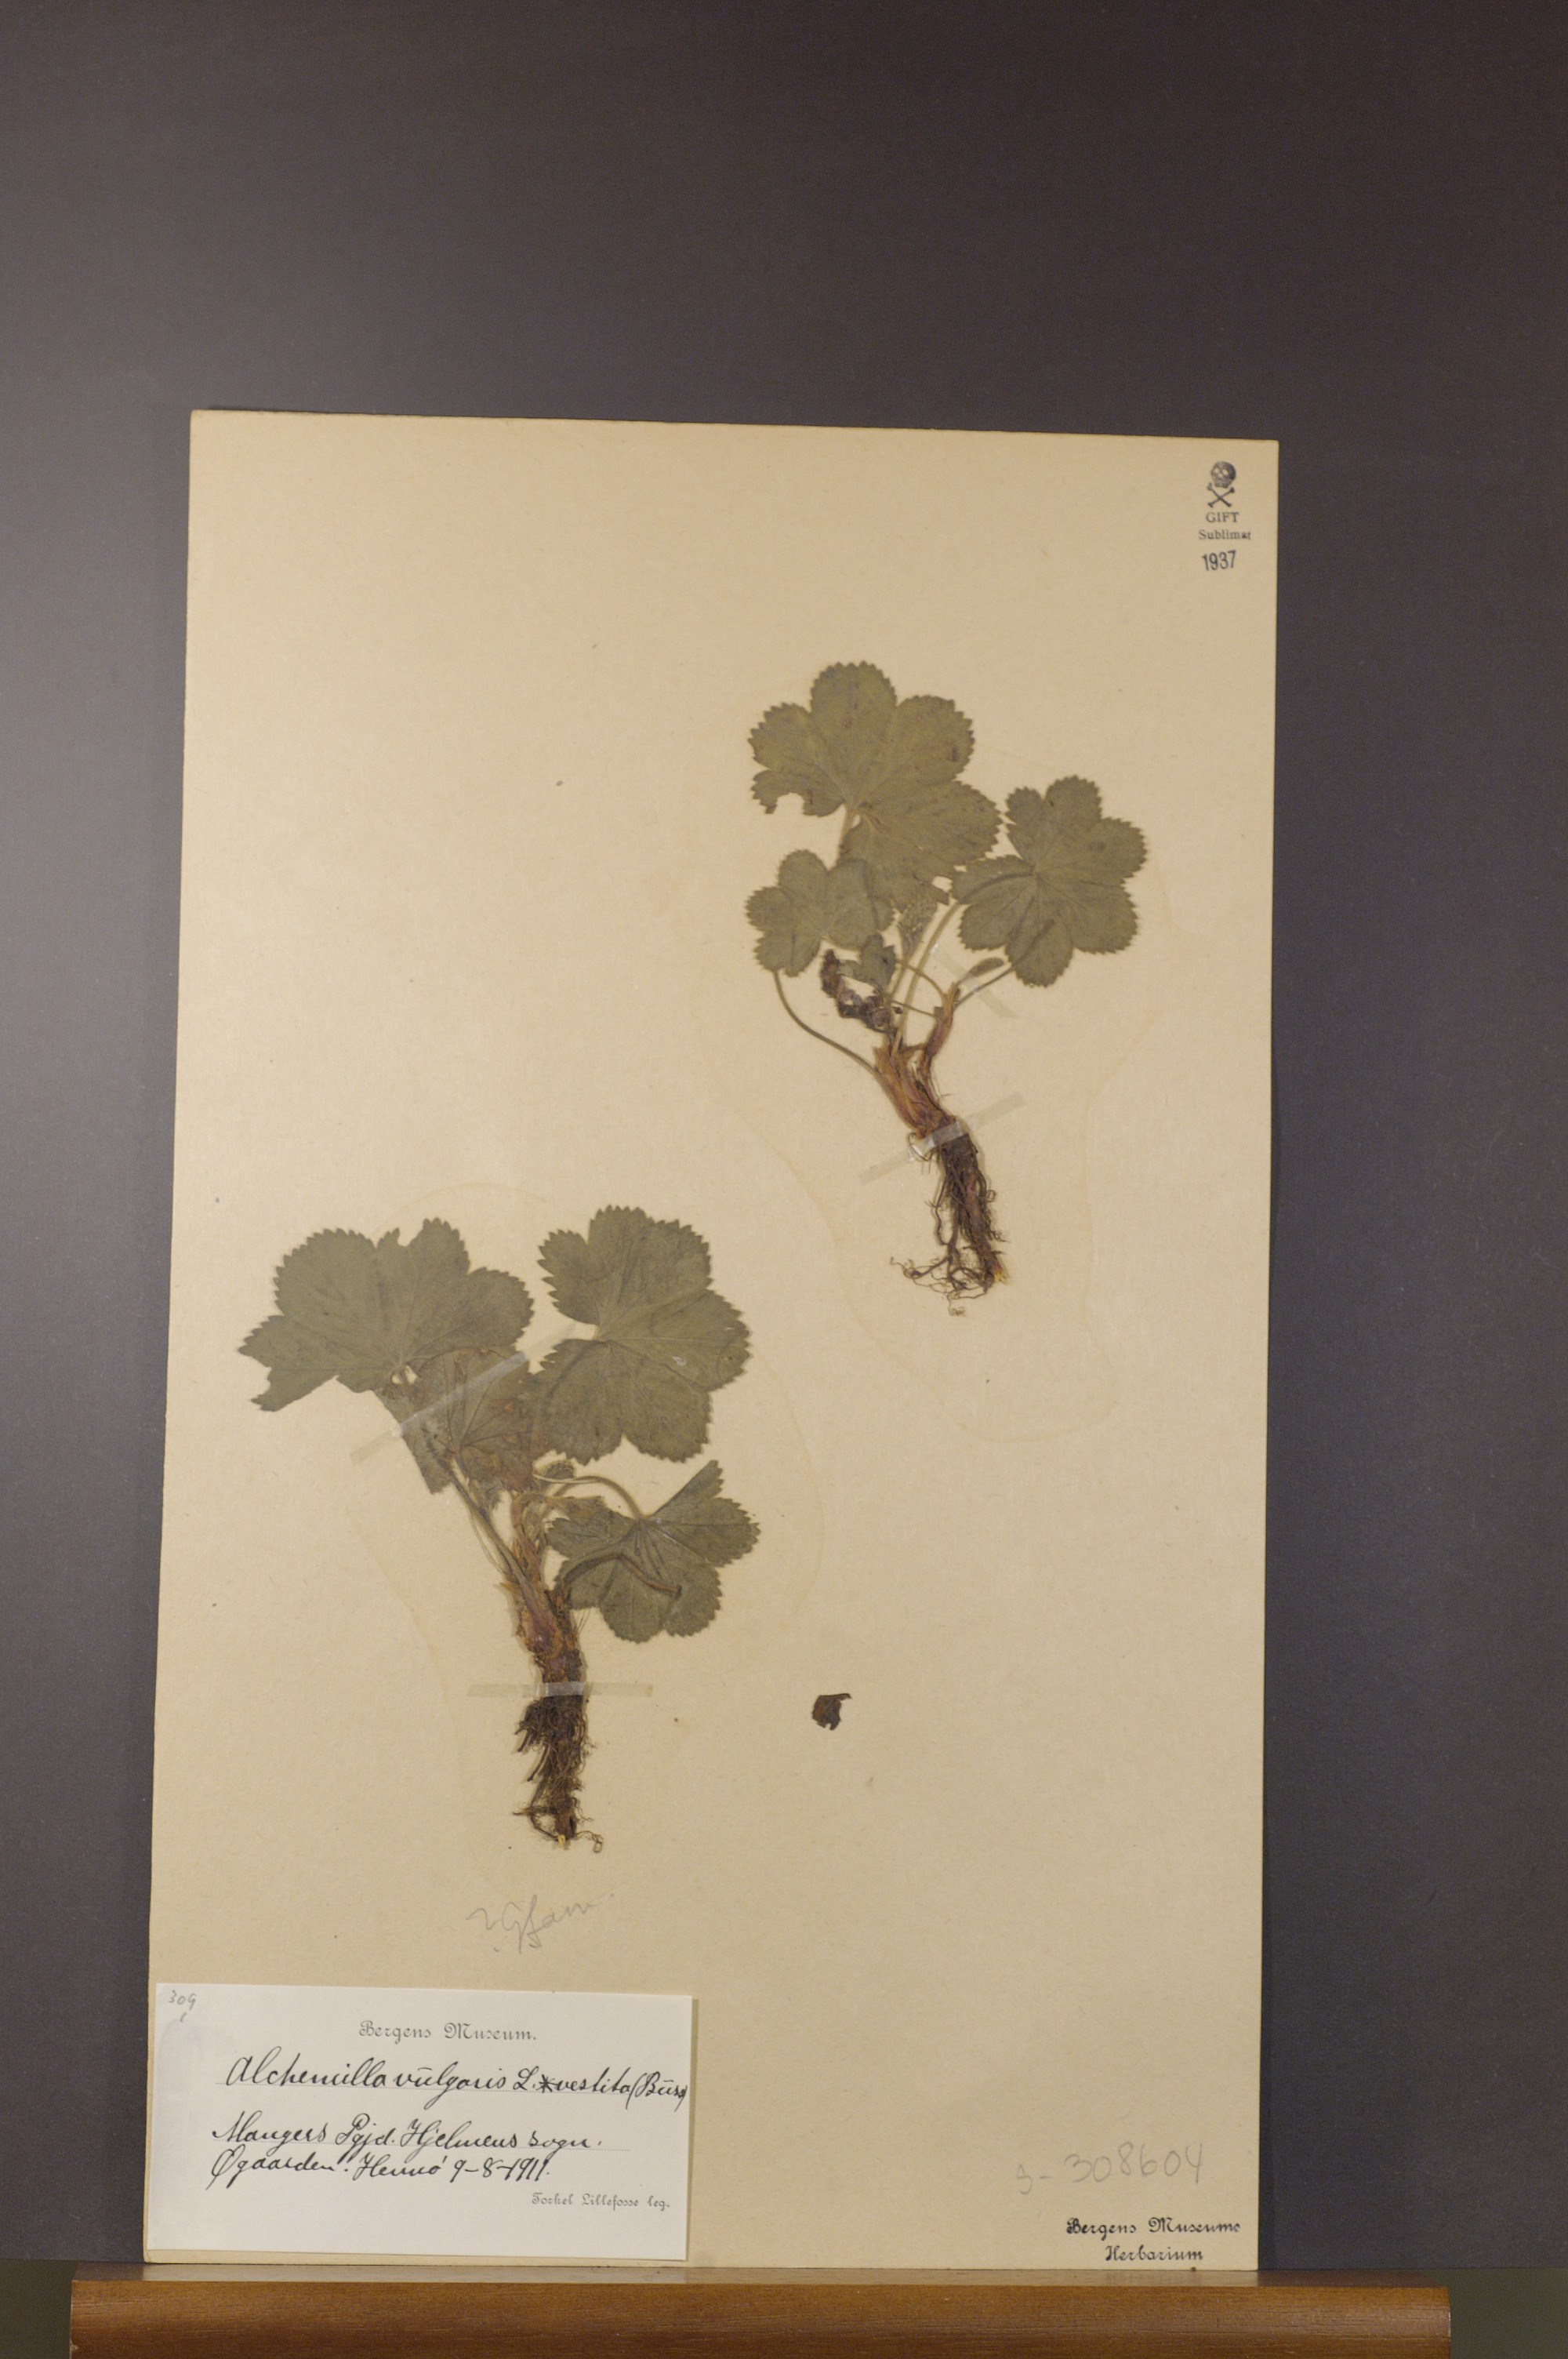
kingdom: Plantae
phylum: Tracheophyta
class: Magnoliopsida
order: Rosales
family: Rosaceae
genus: Alchemilla
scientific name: Alchemilla filicaulis
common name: Hairy lady's-mantle
